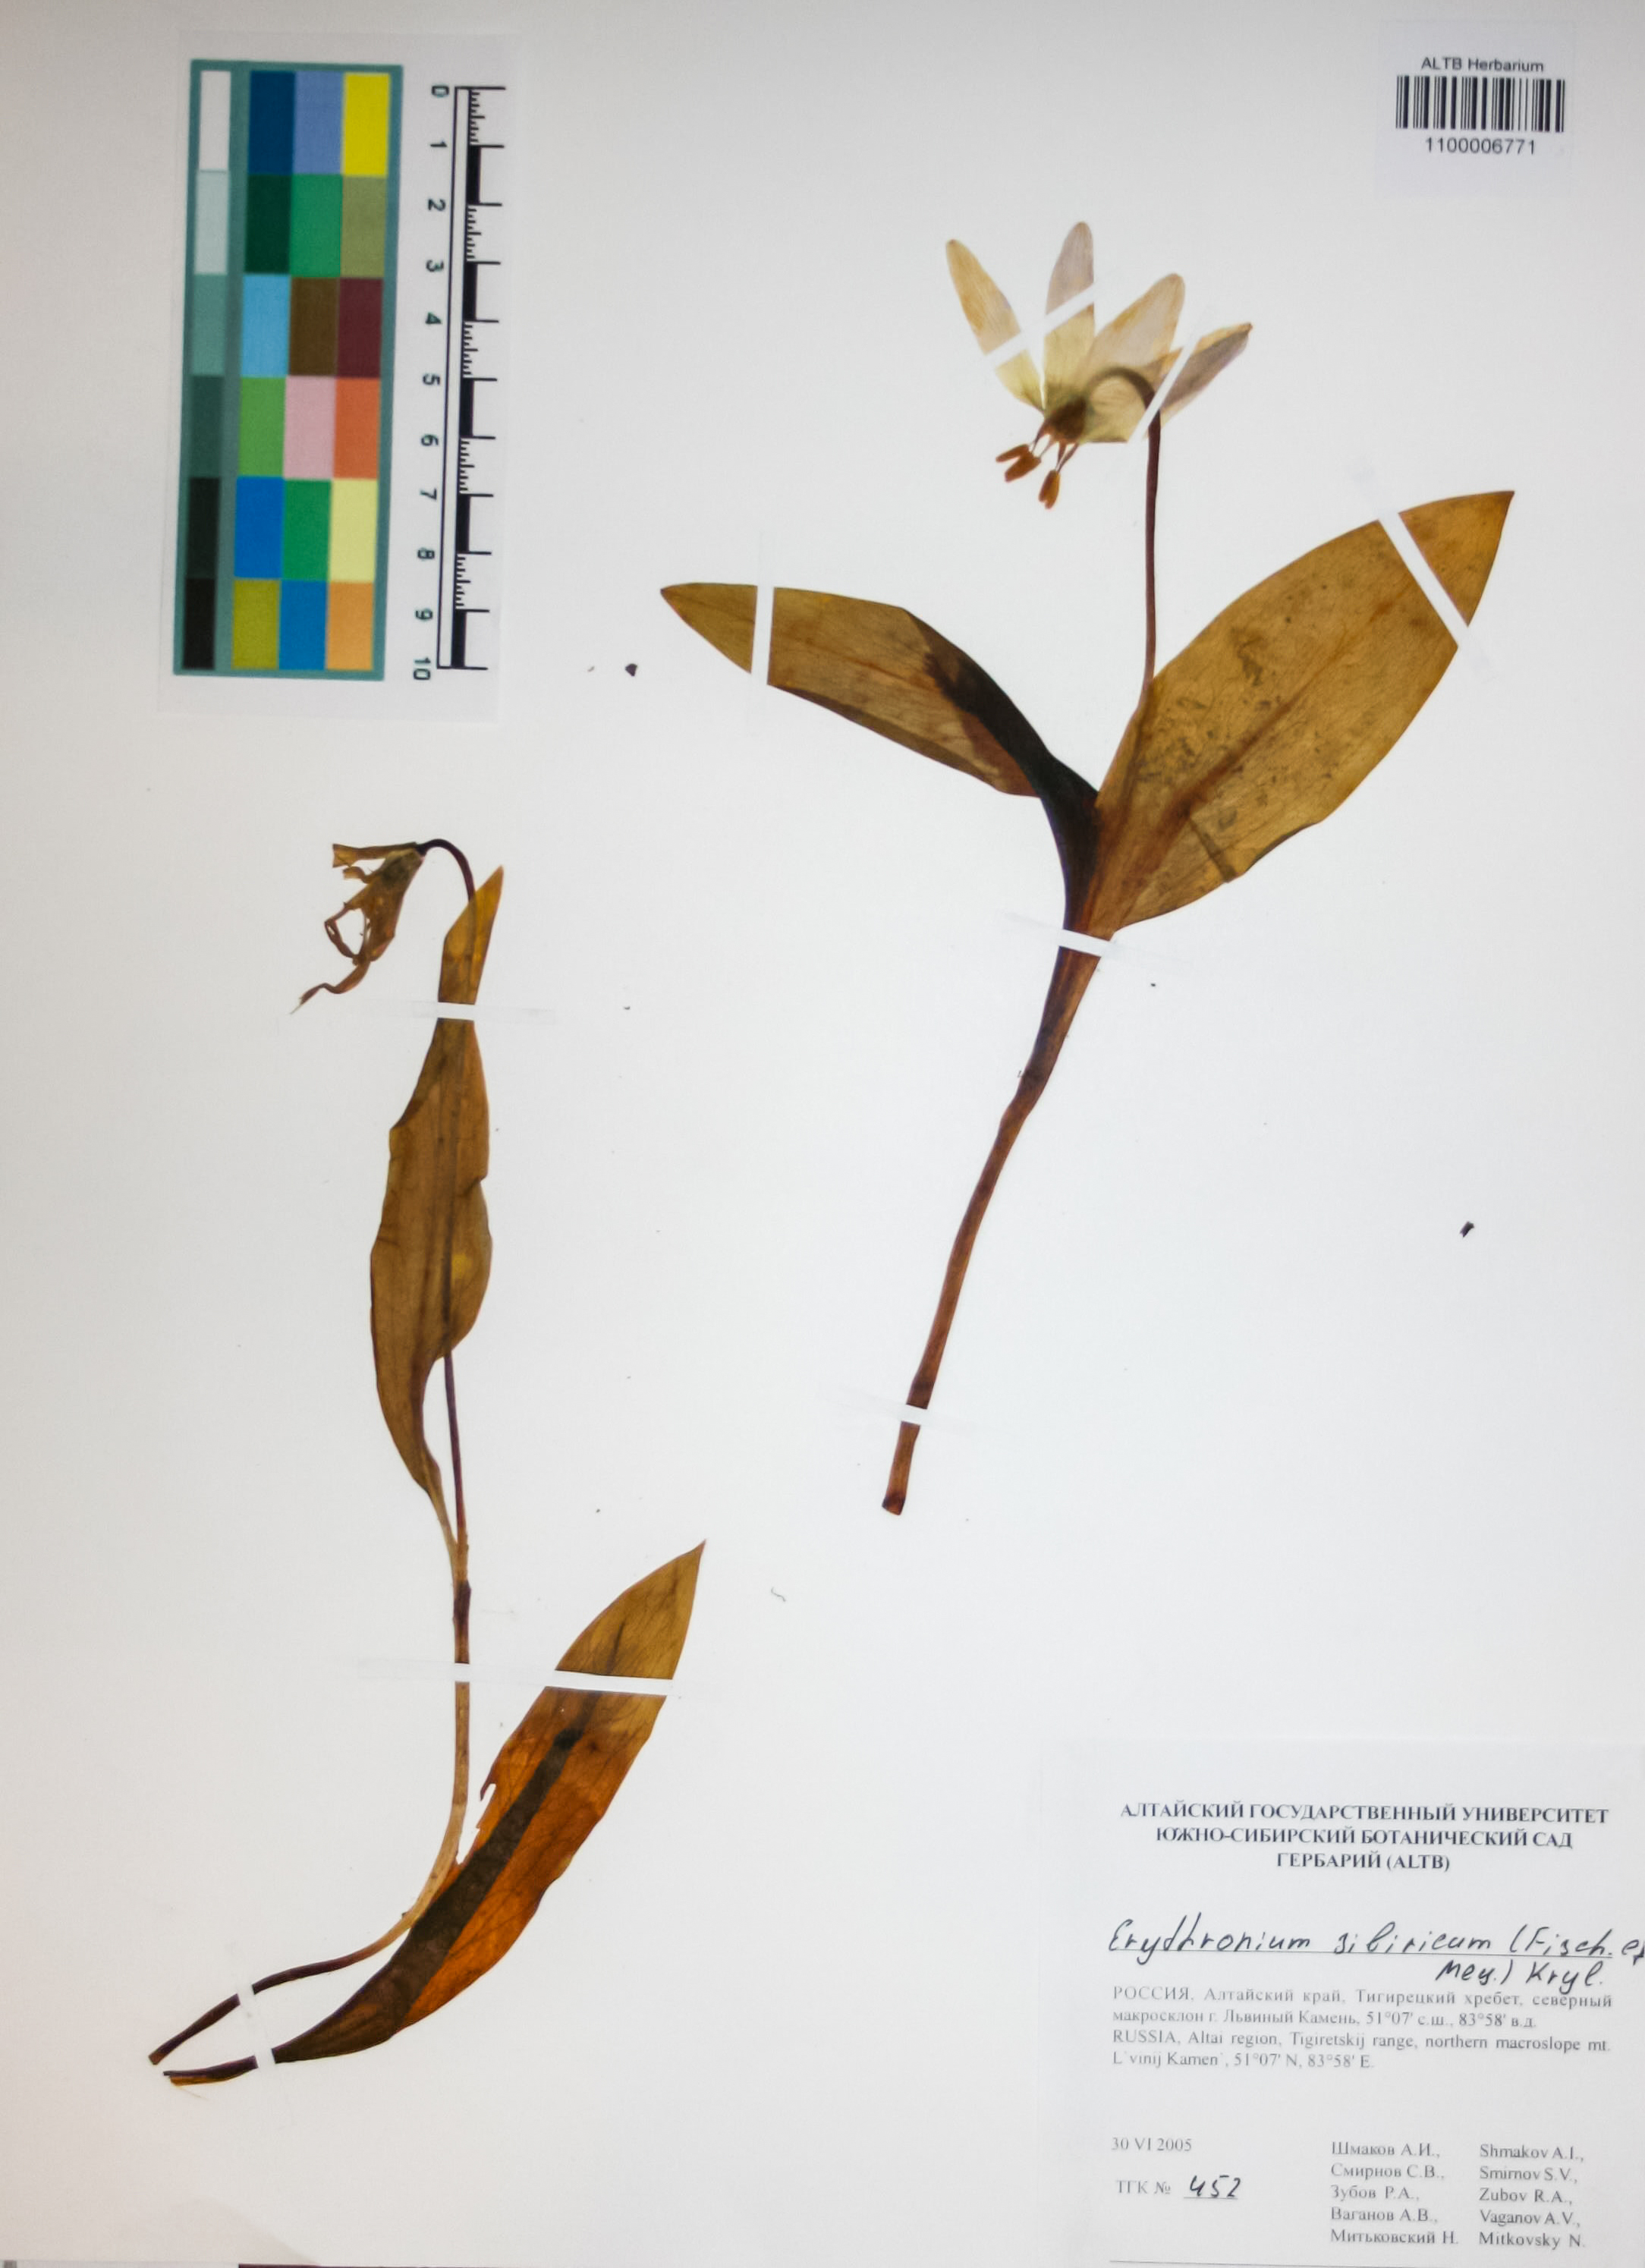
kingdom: Plantae
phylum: Tracheophyta
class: Liliopsida
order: Liliales
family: Liliaceae
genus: Erythronium
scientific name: Erythronium sibiricum
